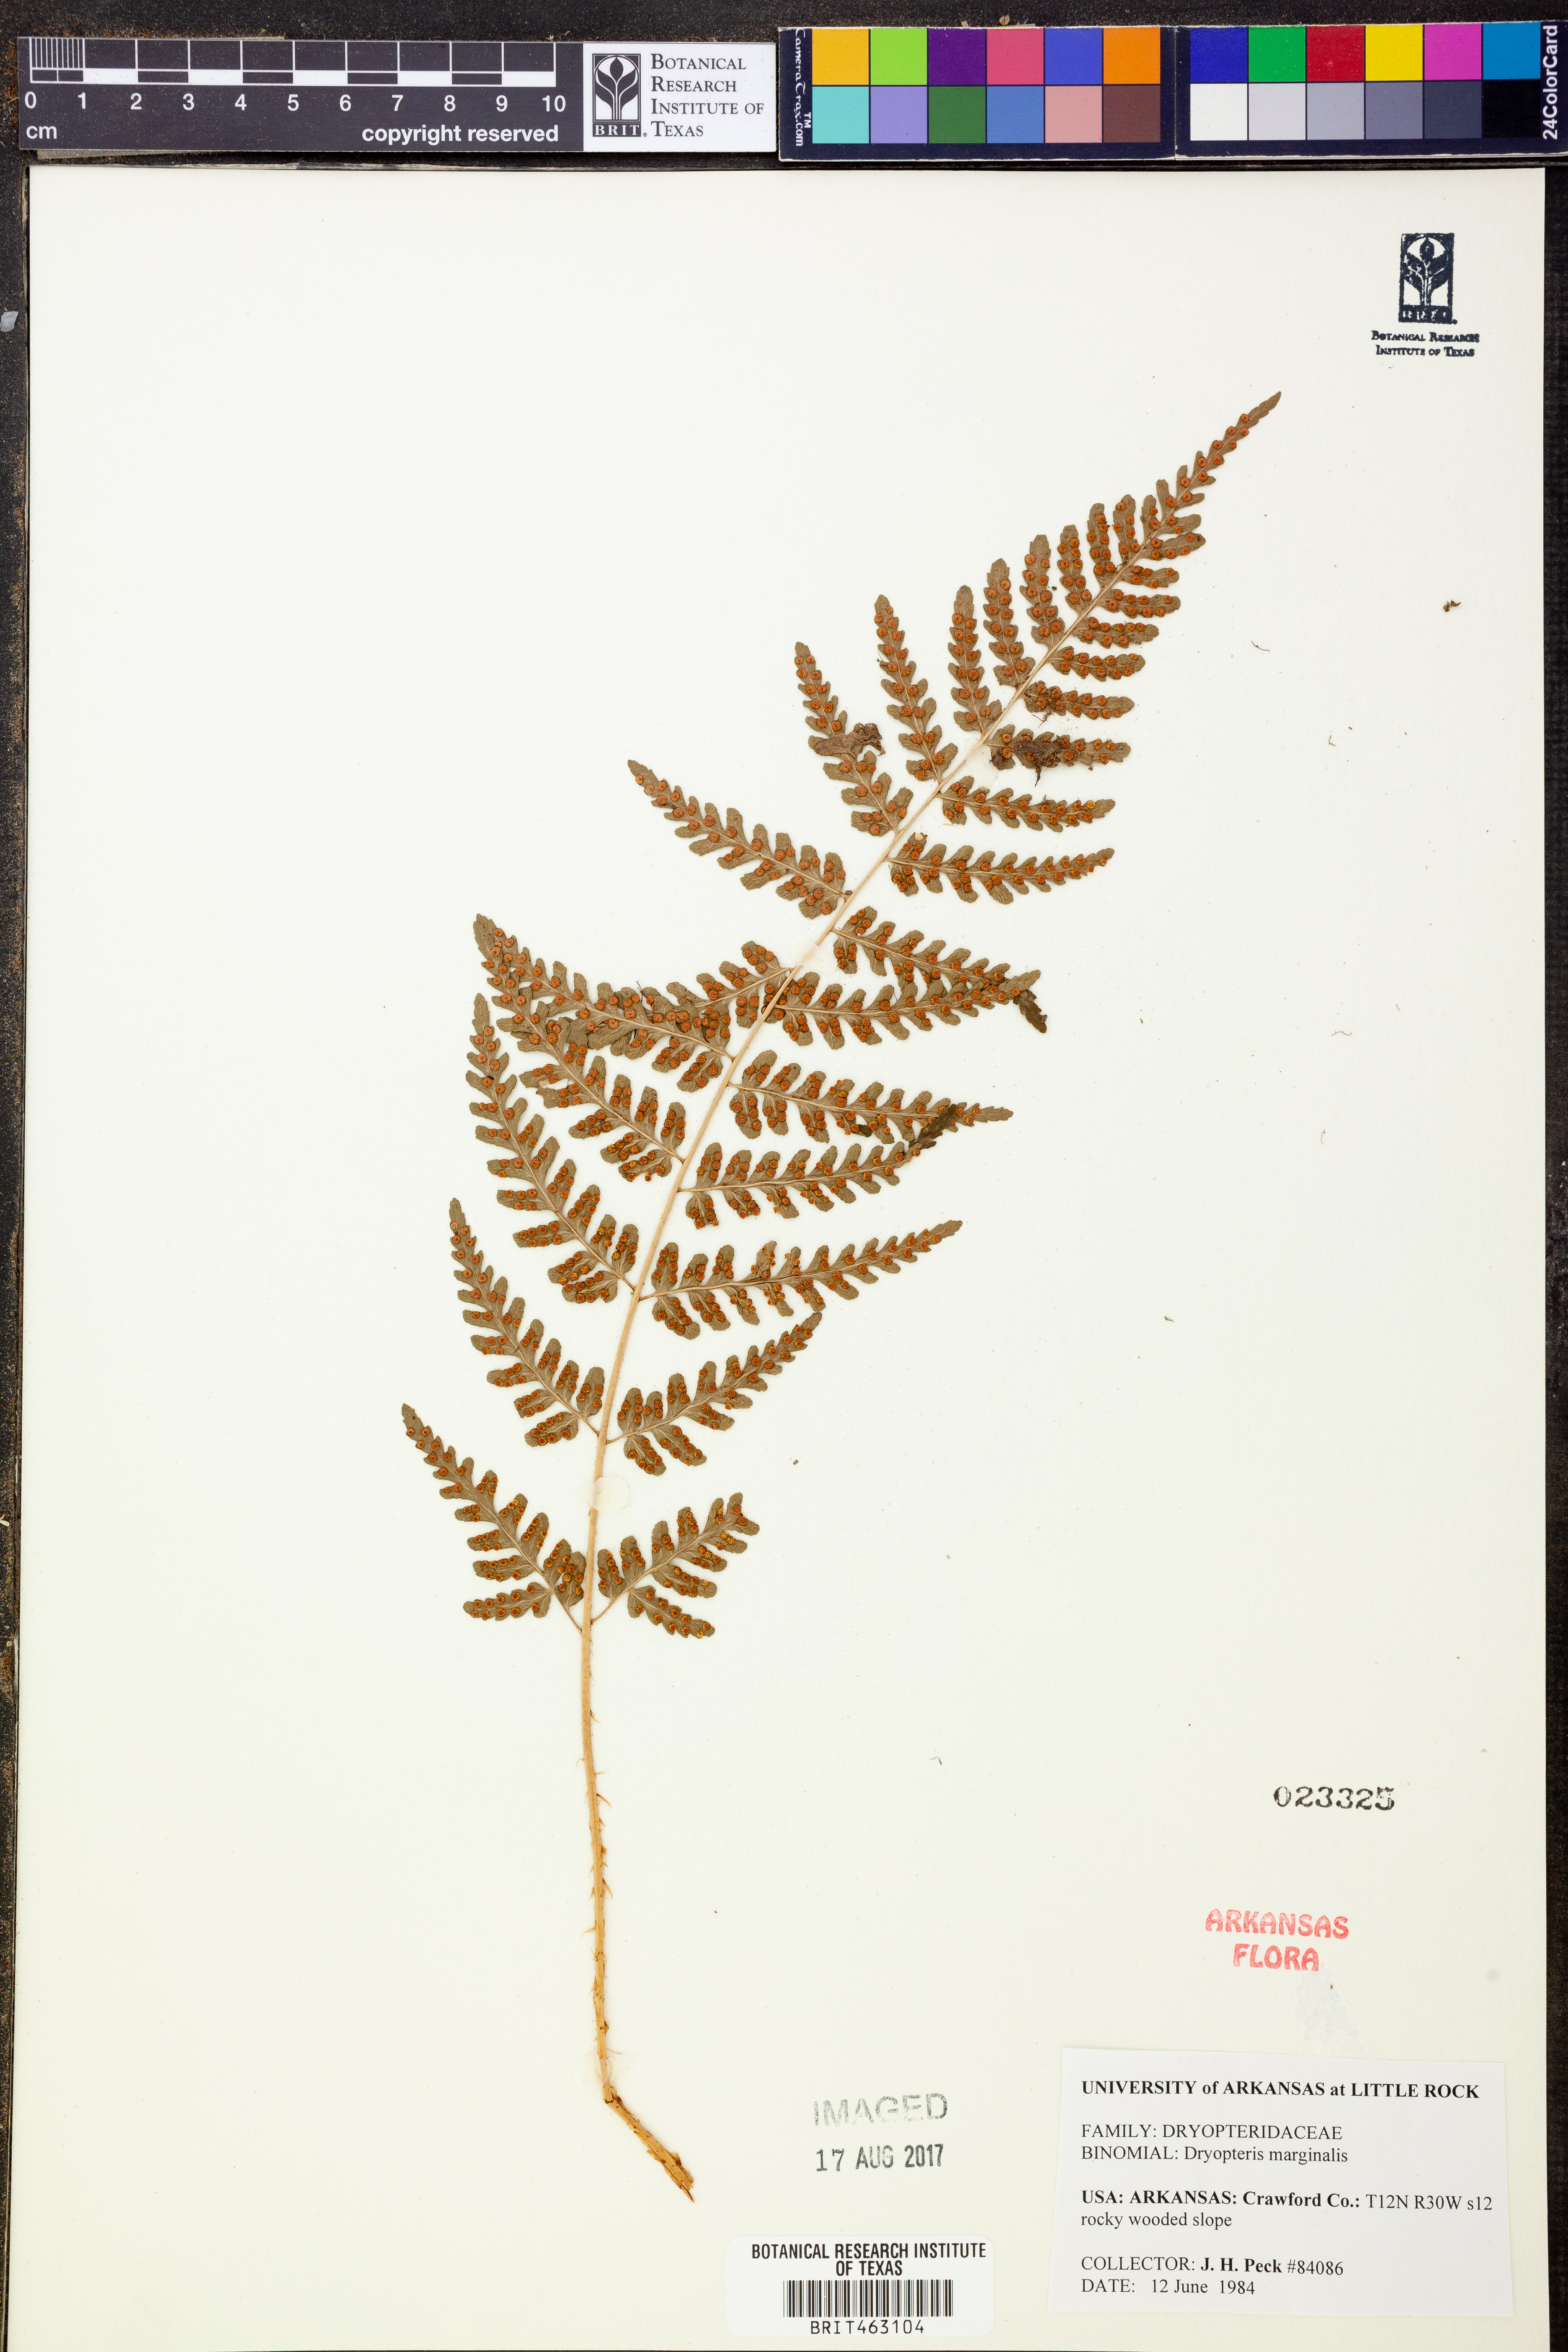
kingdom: Plantae
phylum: Tracheophyta
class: Polypodiopsida
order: Polypodiales
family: Dryopteridaceae
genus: Dryopteris
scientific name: Dryopteris marginalis
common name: Marginal wood fern
